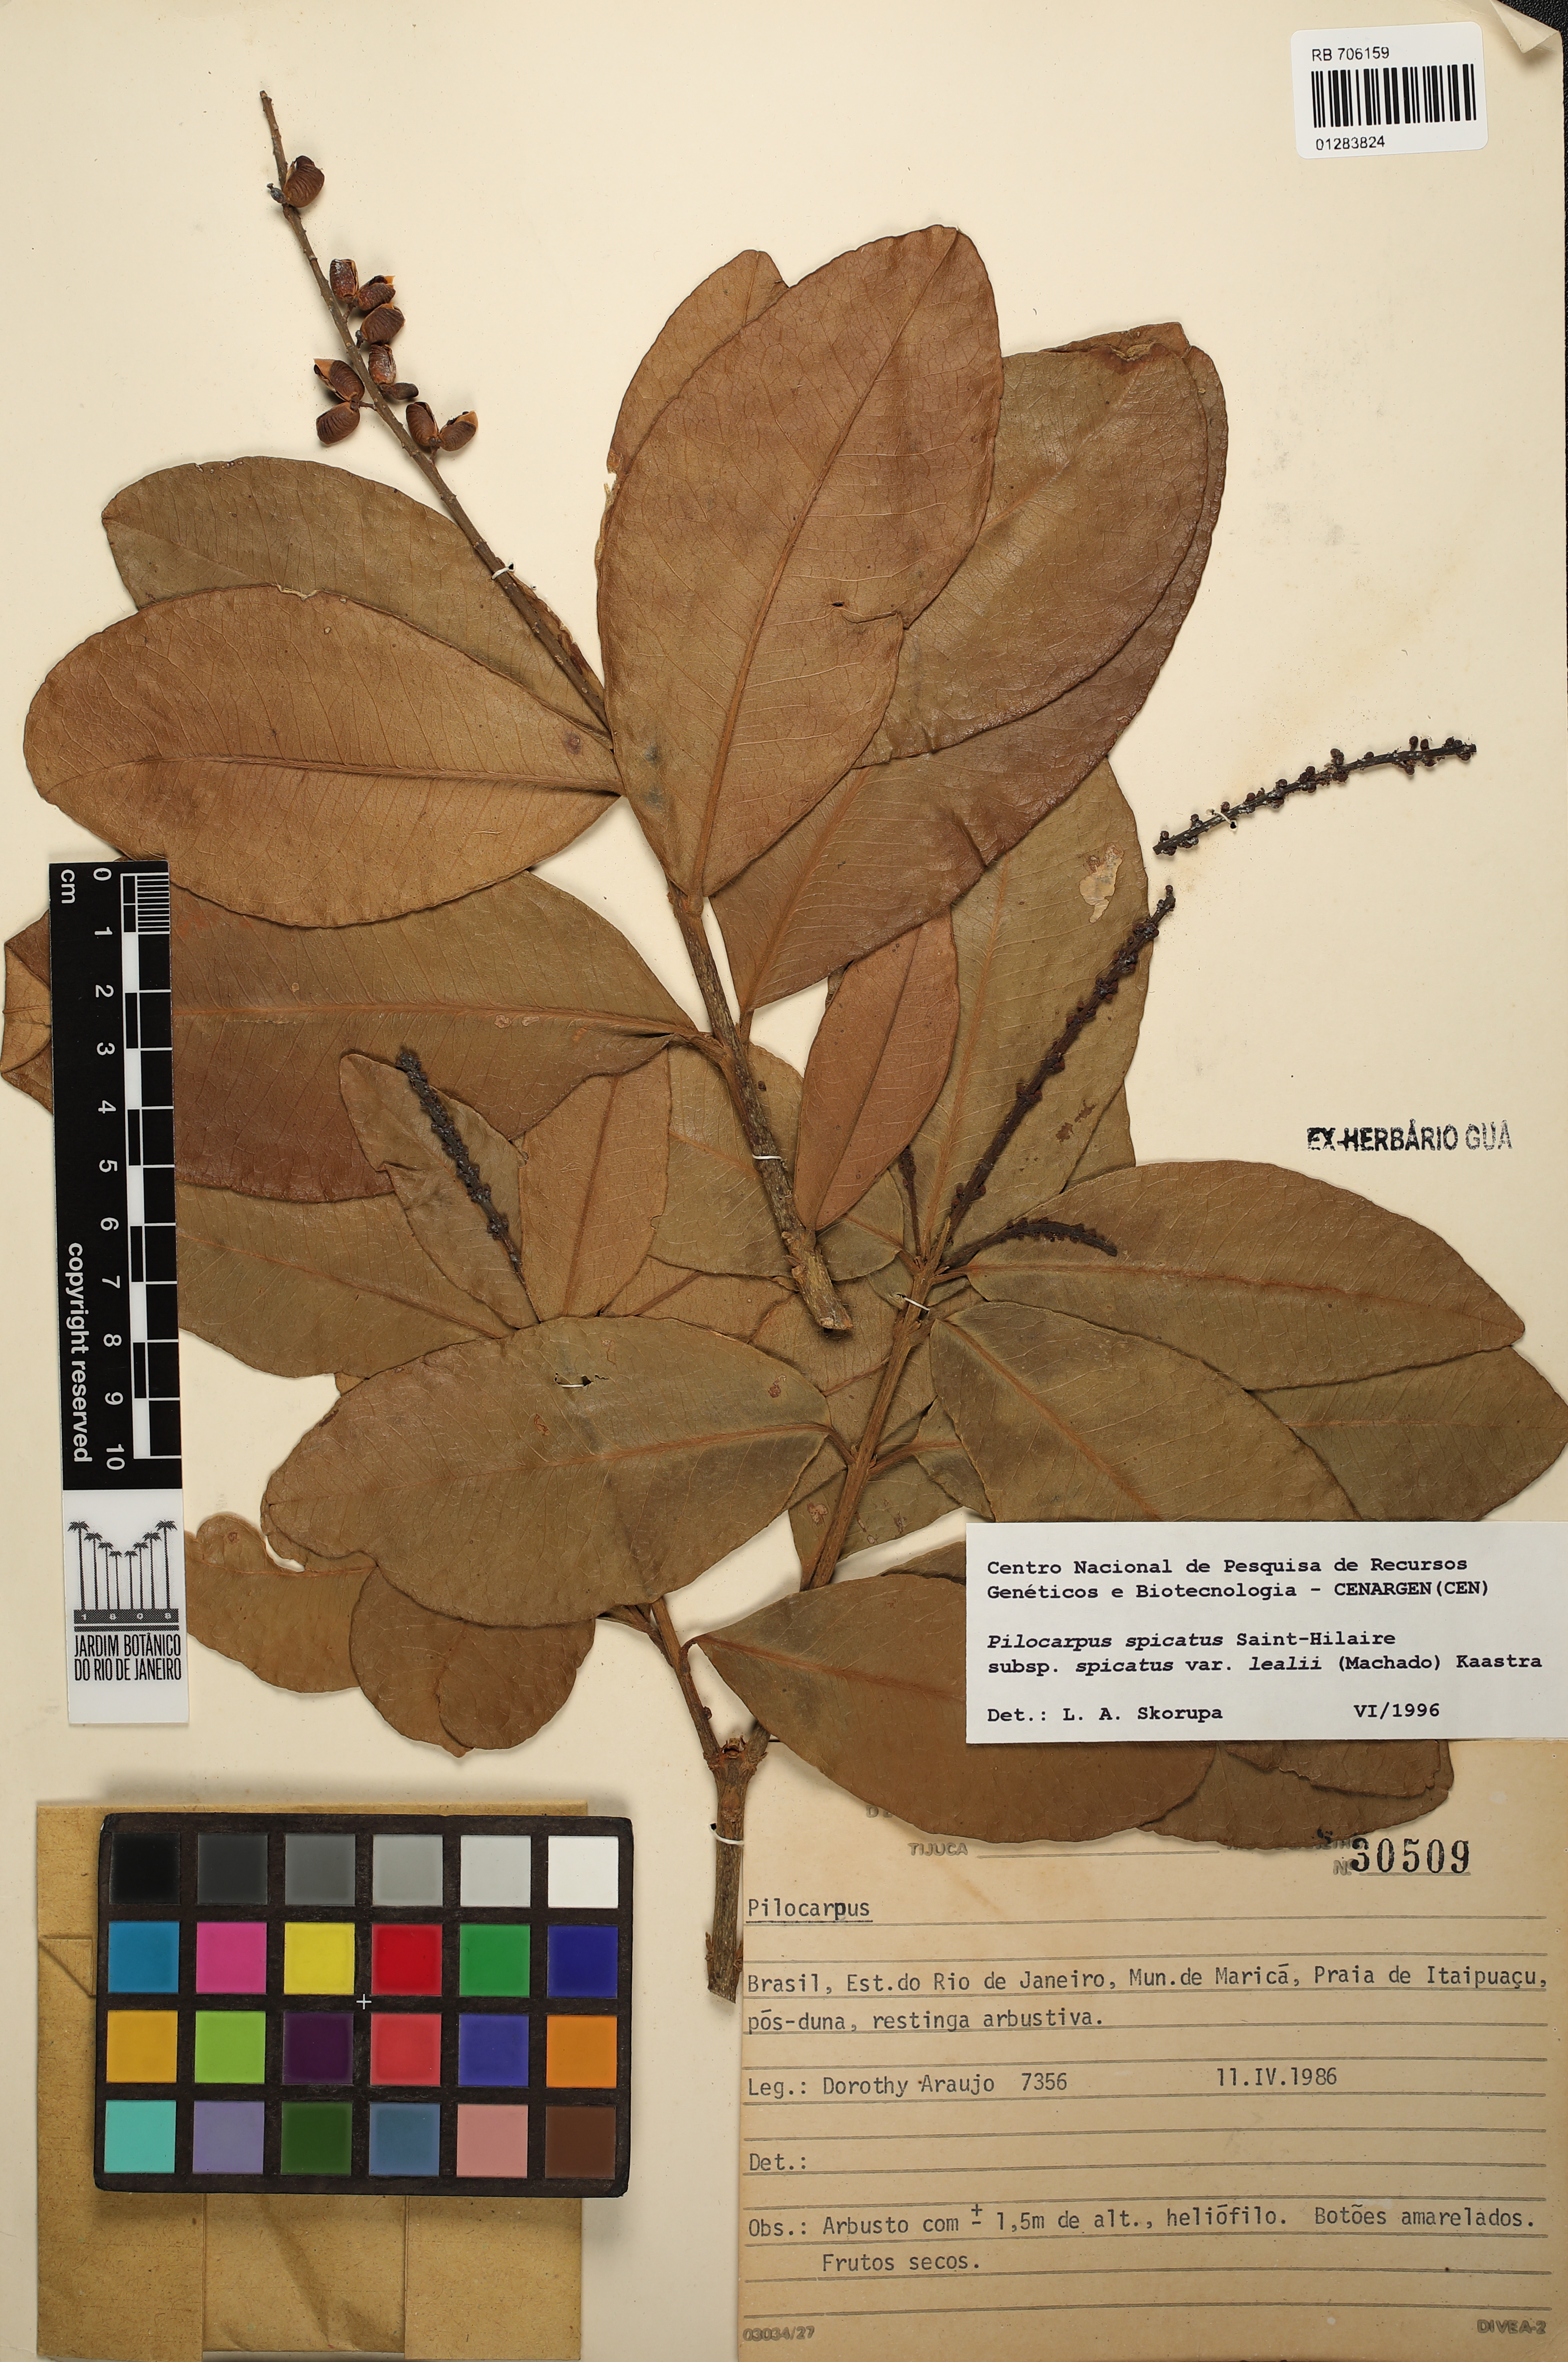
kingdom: Plantae
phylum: Tracheophyta
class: Magnoliopsida
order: Sapindales
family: Rutaceae
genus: Pilocarpus
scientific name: Pilocarpus spicatus
